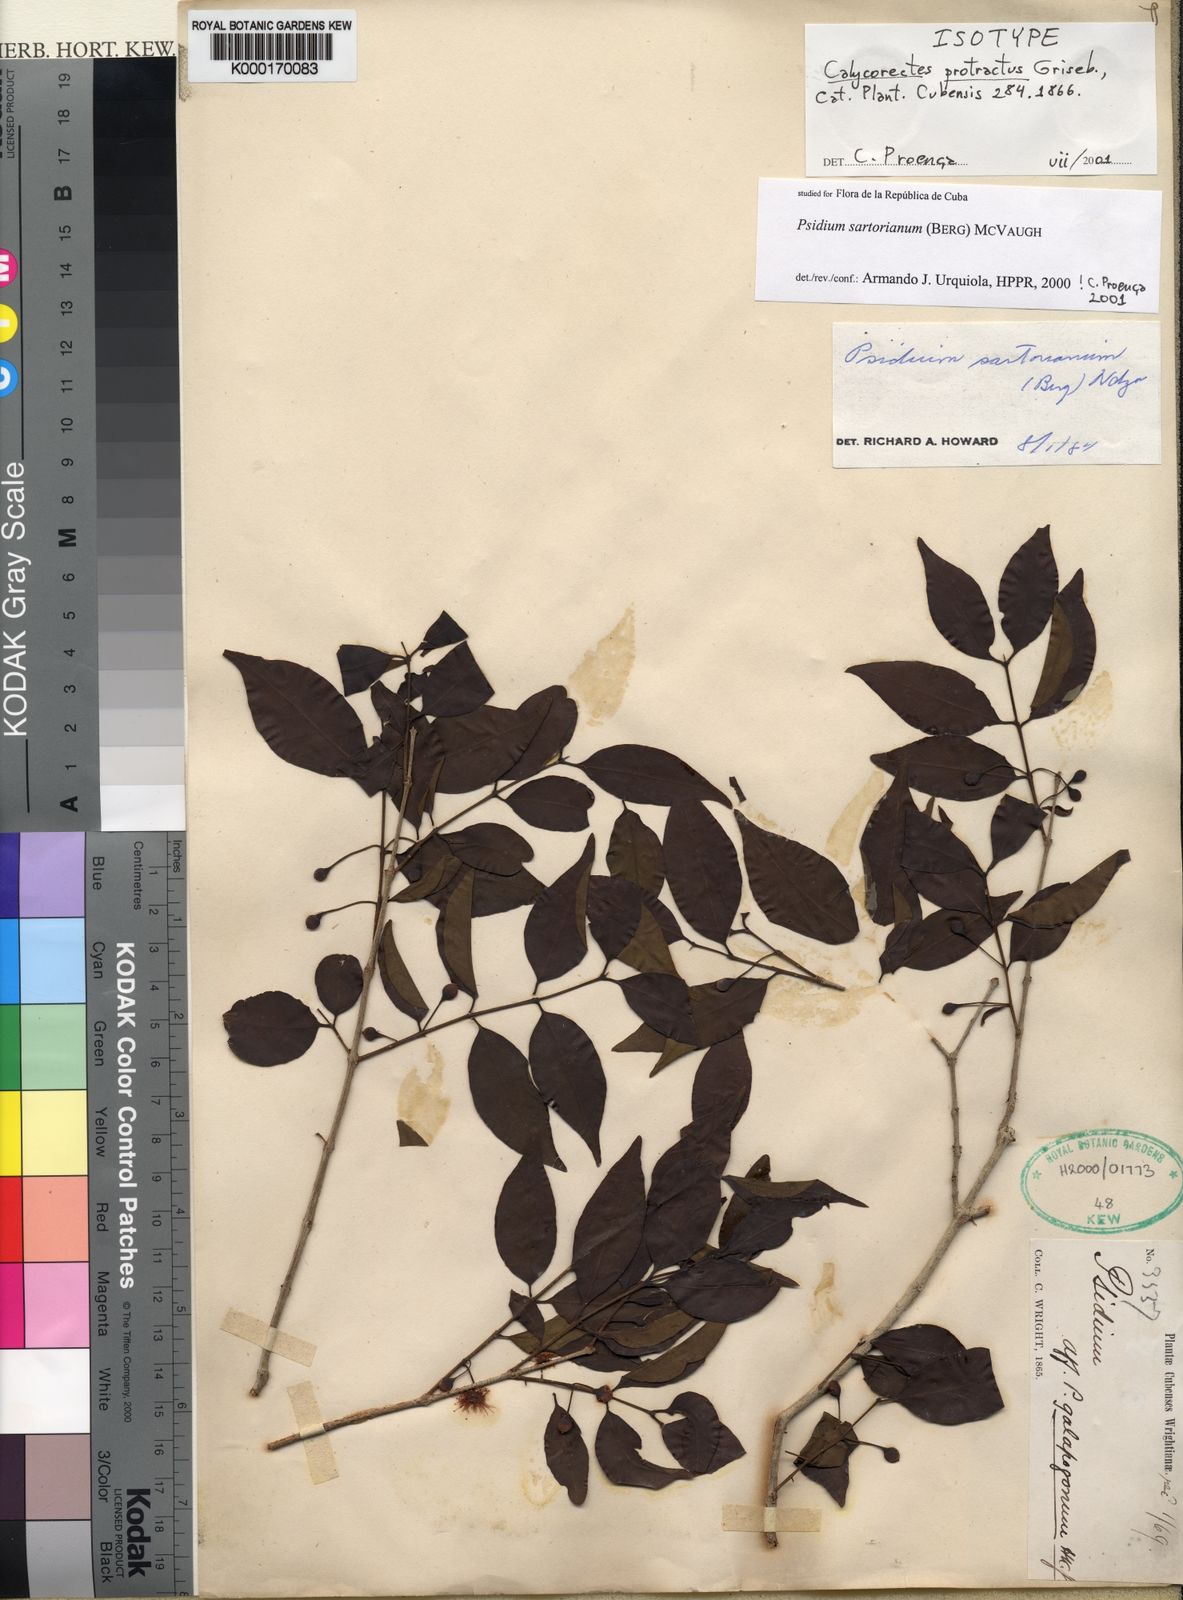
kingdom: Plantae
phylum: Tracheophyta
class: Magnoliopsida
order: Myrtales
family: Myrtaceae
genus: Psidium
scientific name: Psidium sartorianum
